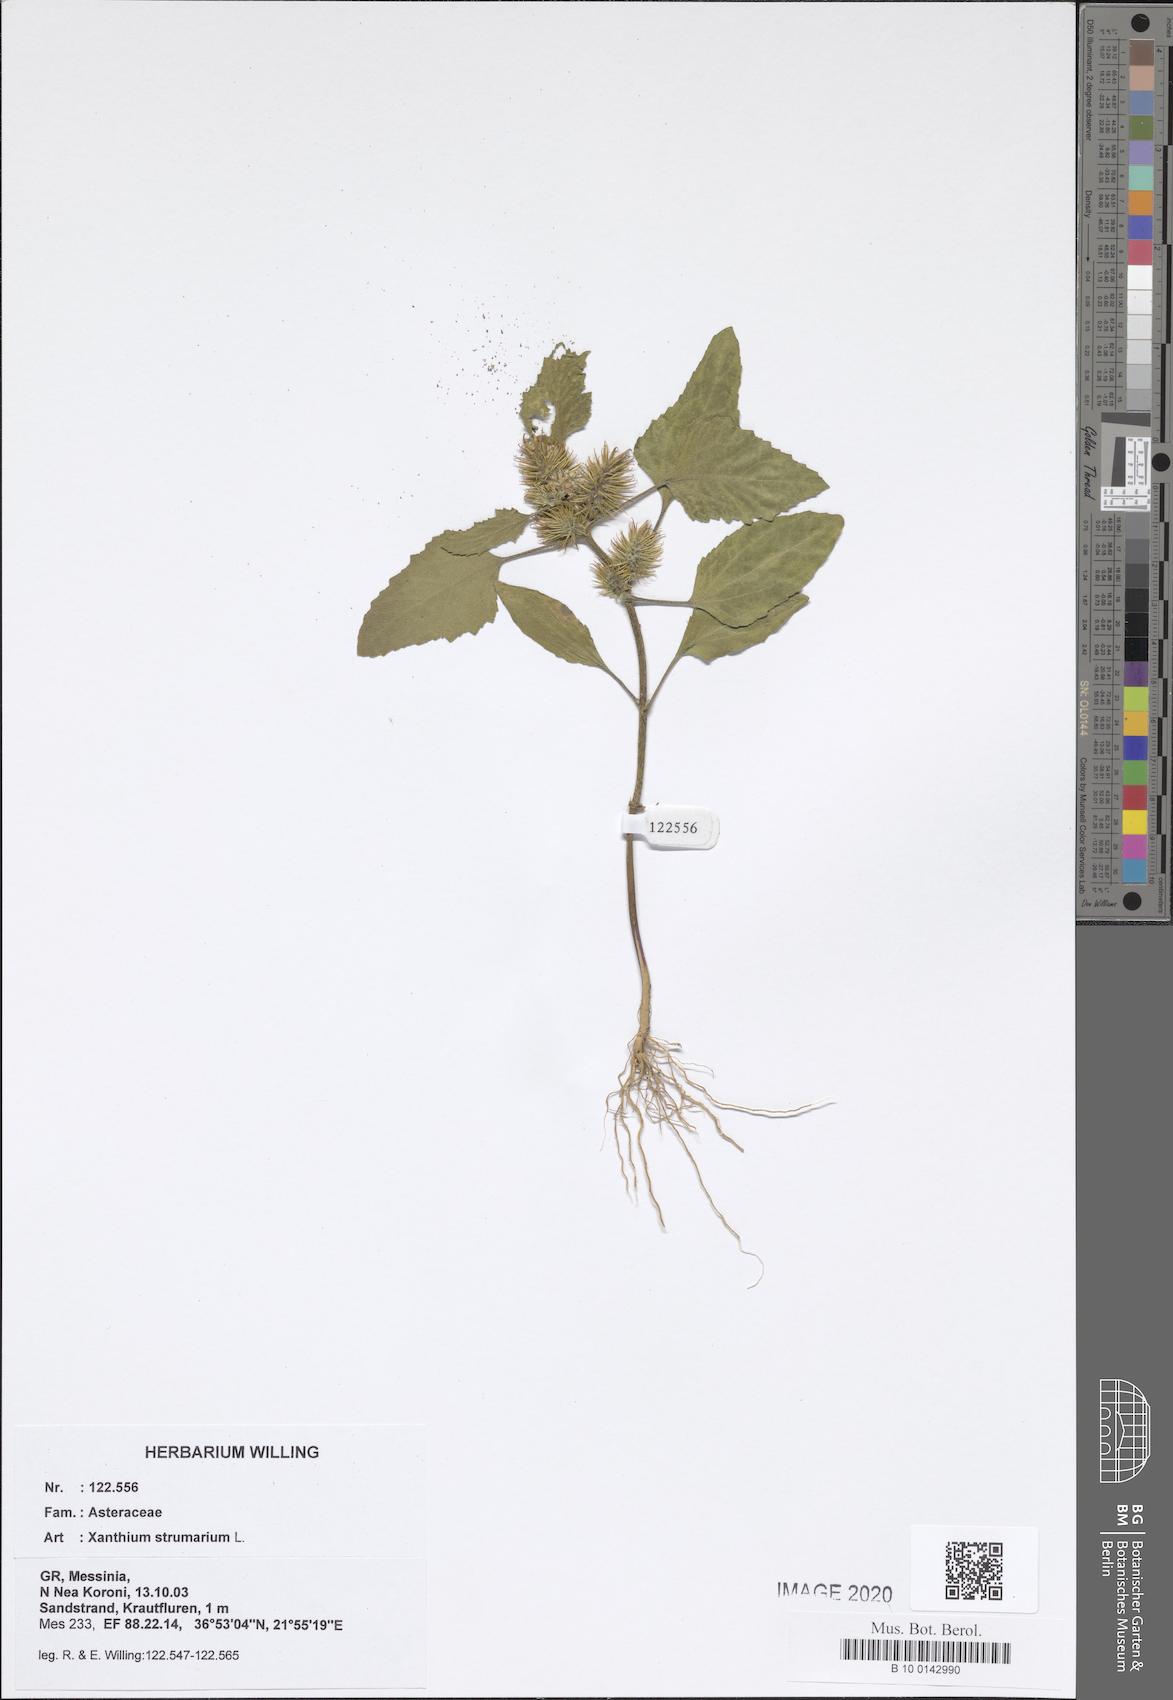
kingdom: Plantae
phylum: Tracheophyta
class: Magnoliopsida
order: Asterales
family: Asteraceae
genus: Xanthium
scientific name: Xanthium strumarium
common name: Rough cocklebur
